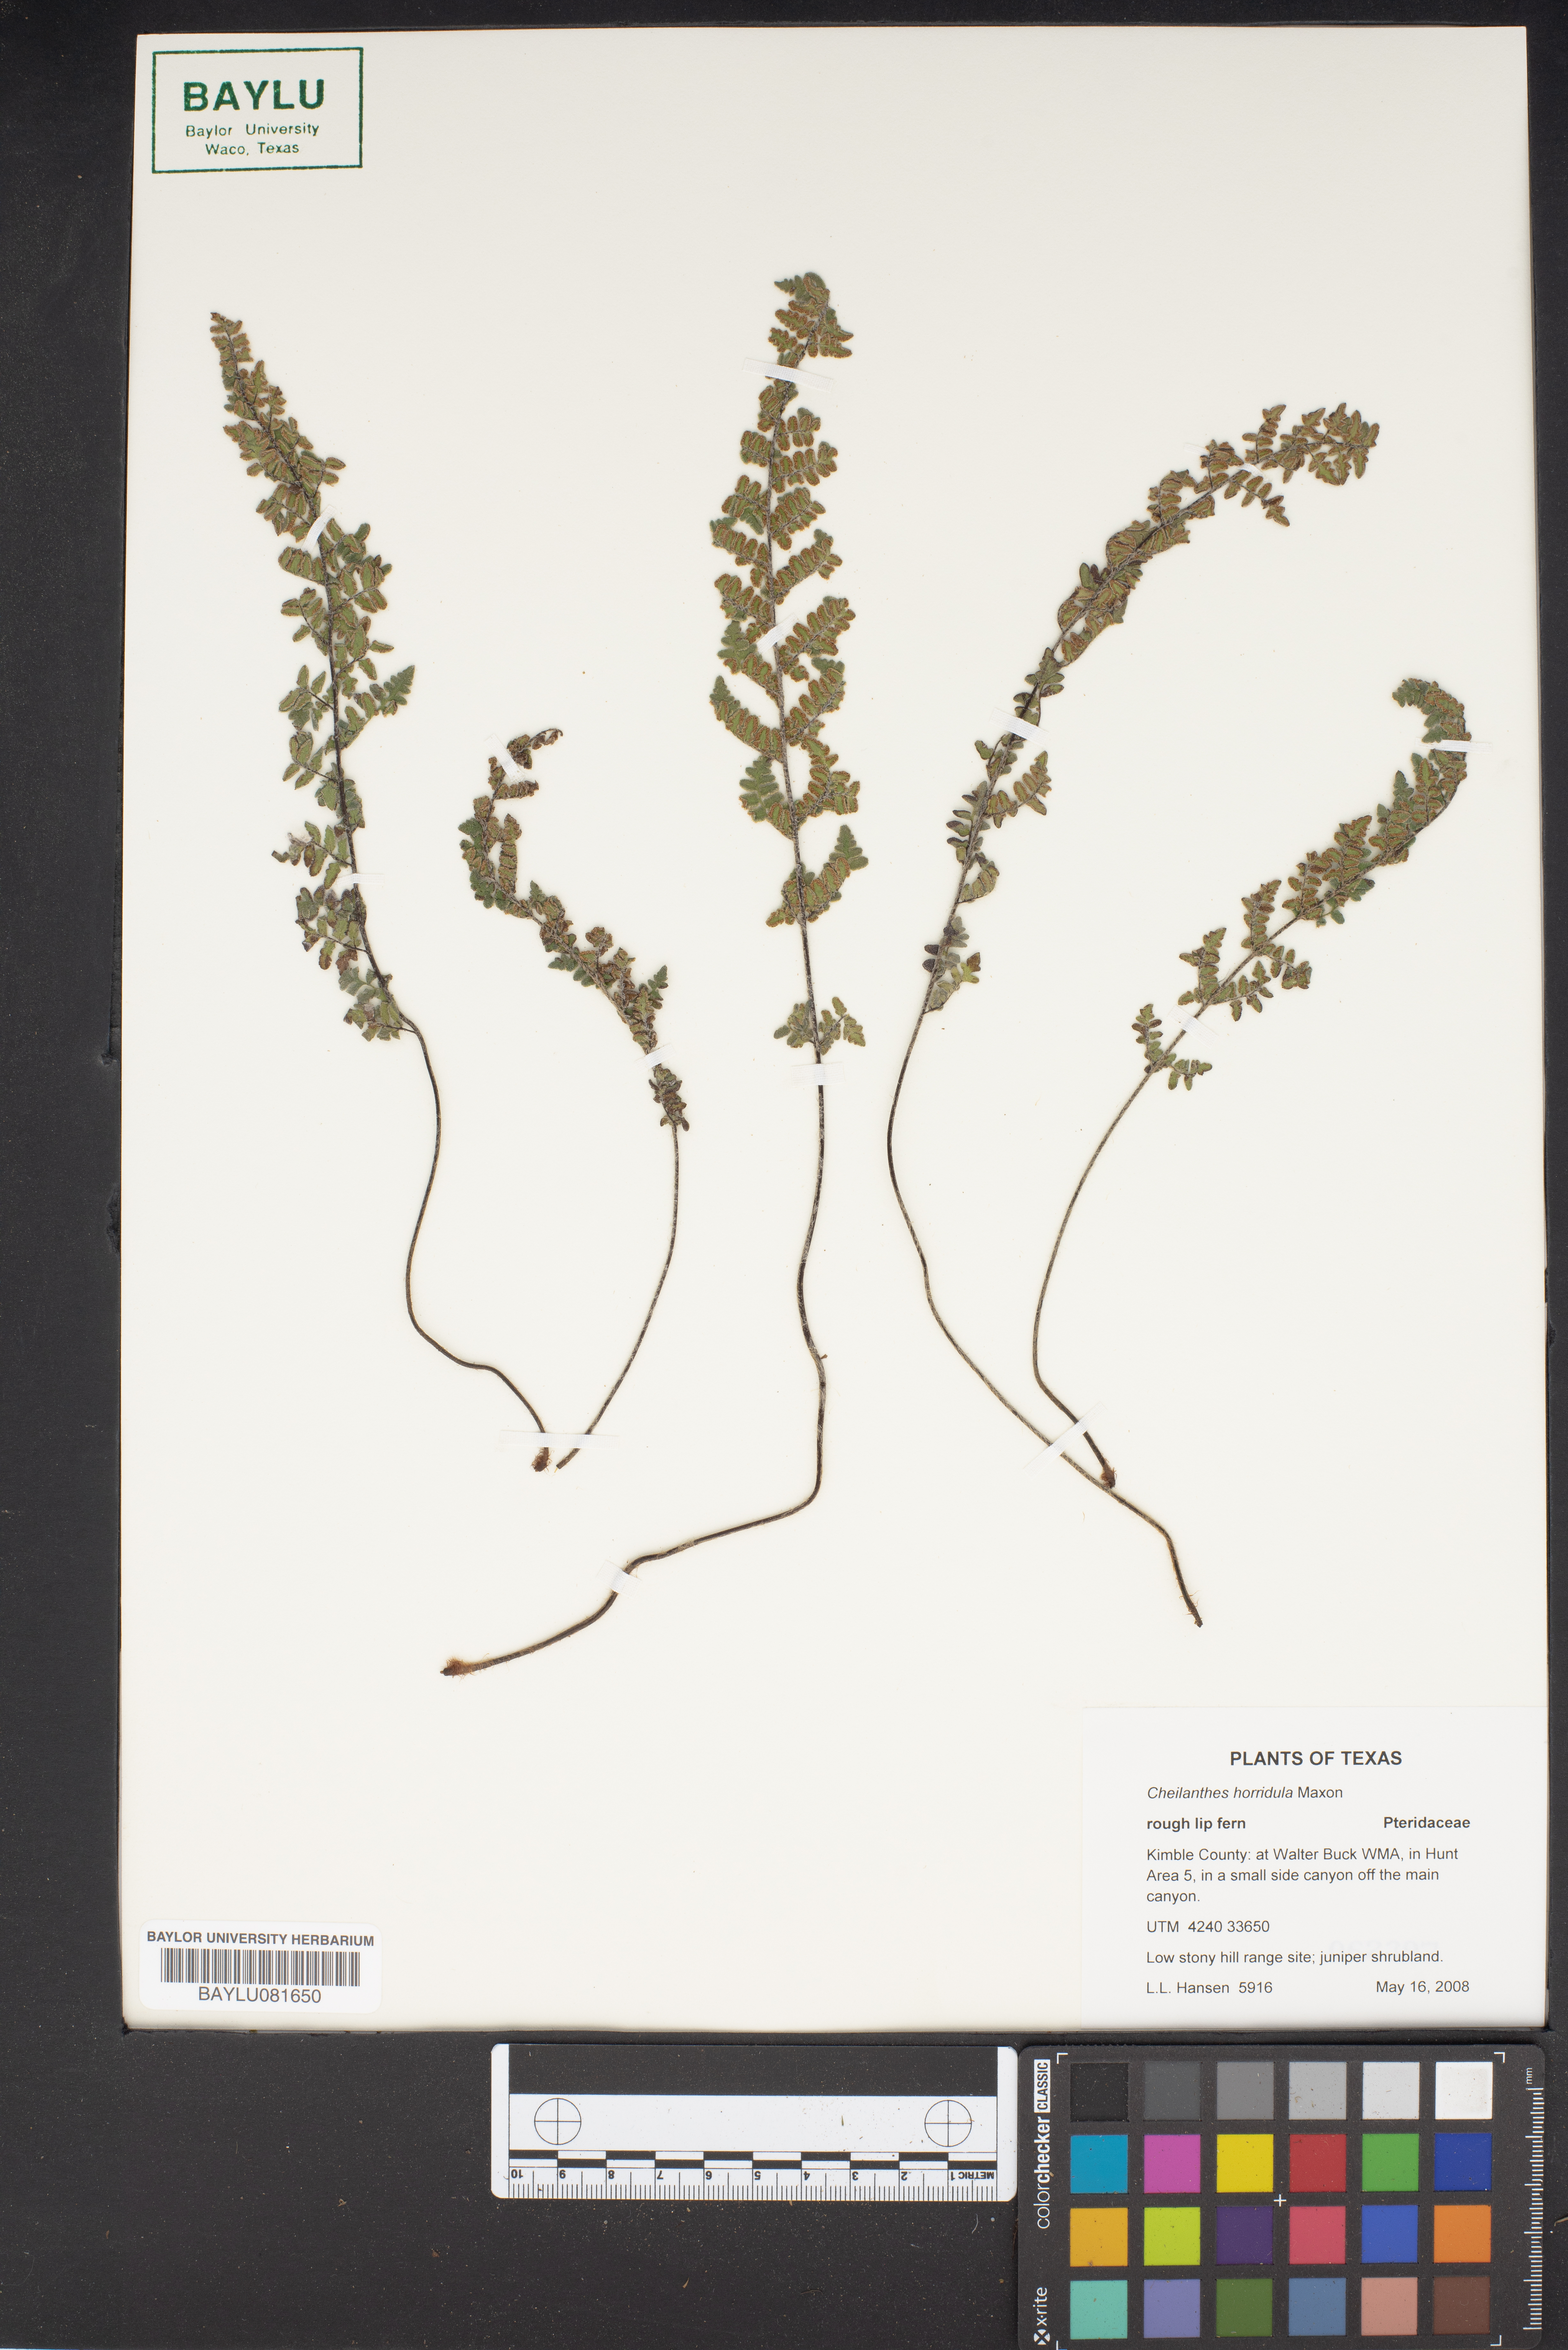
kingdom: Plantae
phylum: Tracheophyta
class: Polypodiopsida
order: Polypodiales
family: Pteridaceae
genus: Myriopteris
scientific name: Myriopteris scabra
